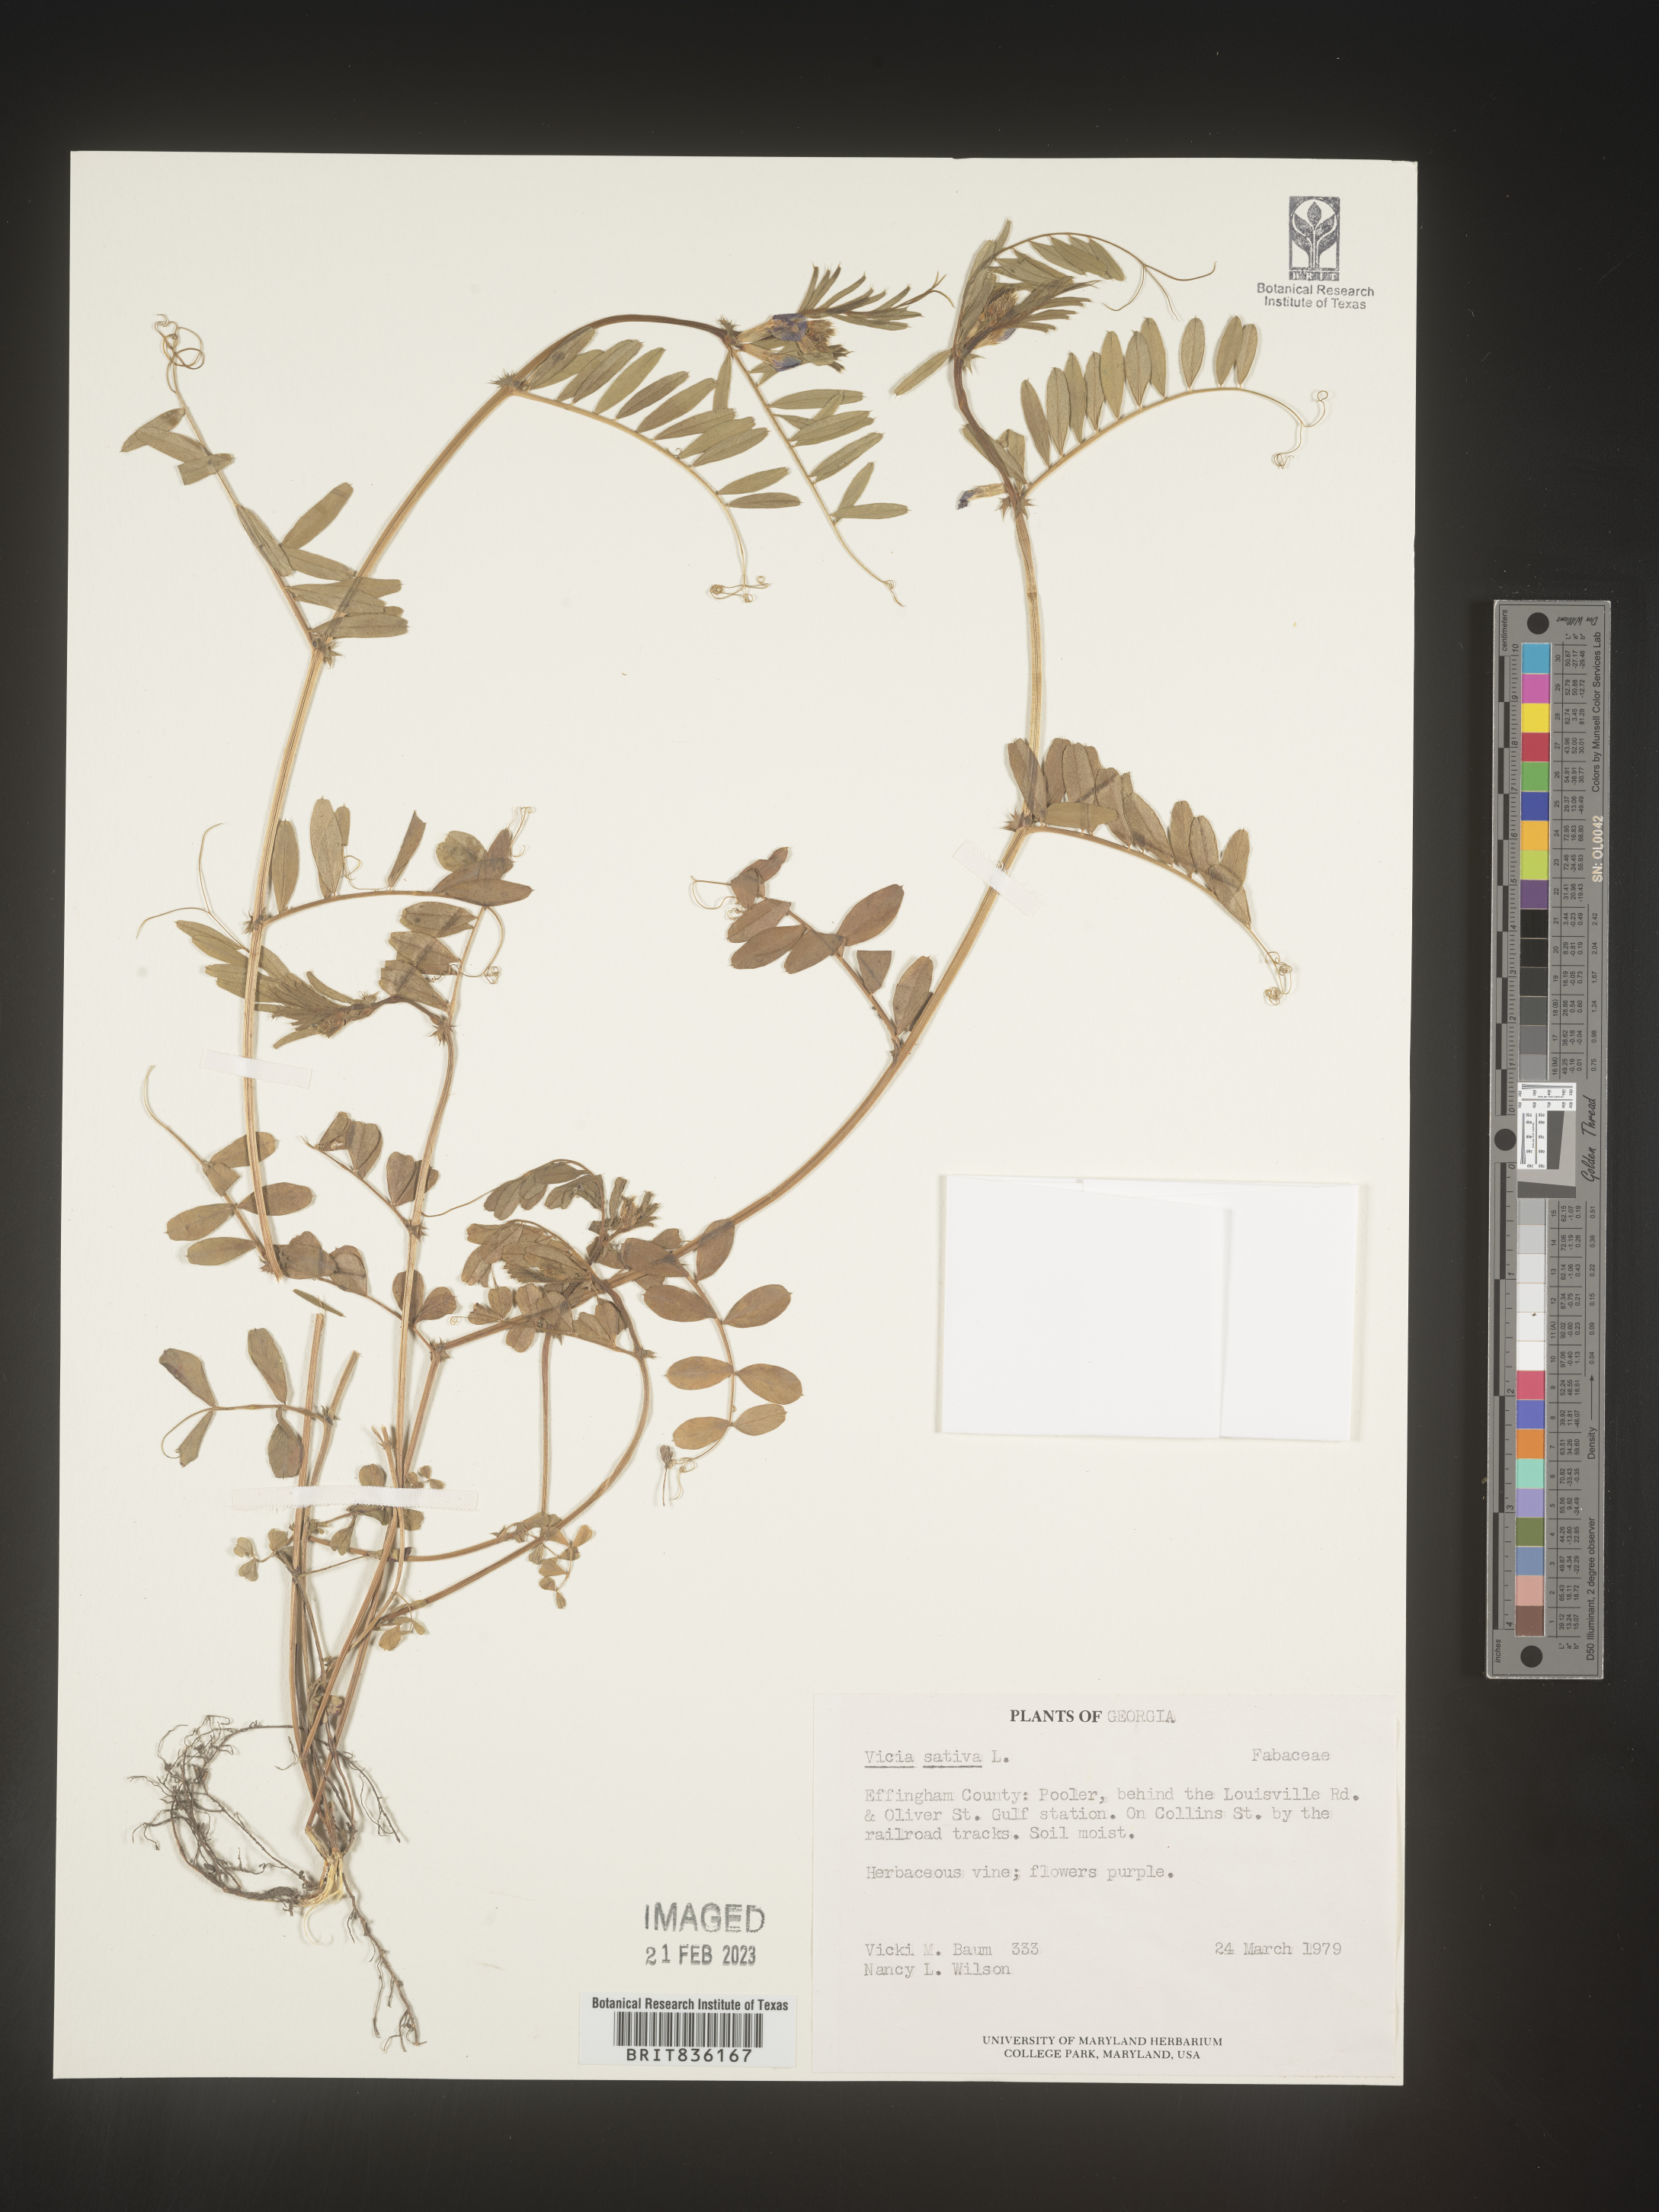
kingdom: Plantae
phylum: Tracheophyta
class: Magnoliopsida
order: Fabales
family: Fabaceae
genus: Vicia
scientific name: Vicia sativa
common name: Garden vetch
